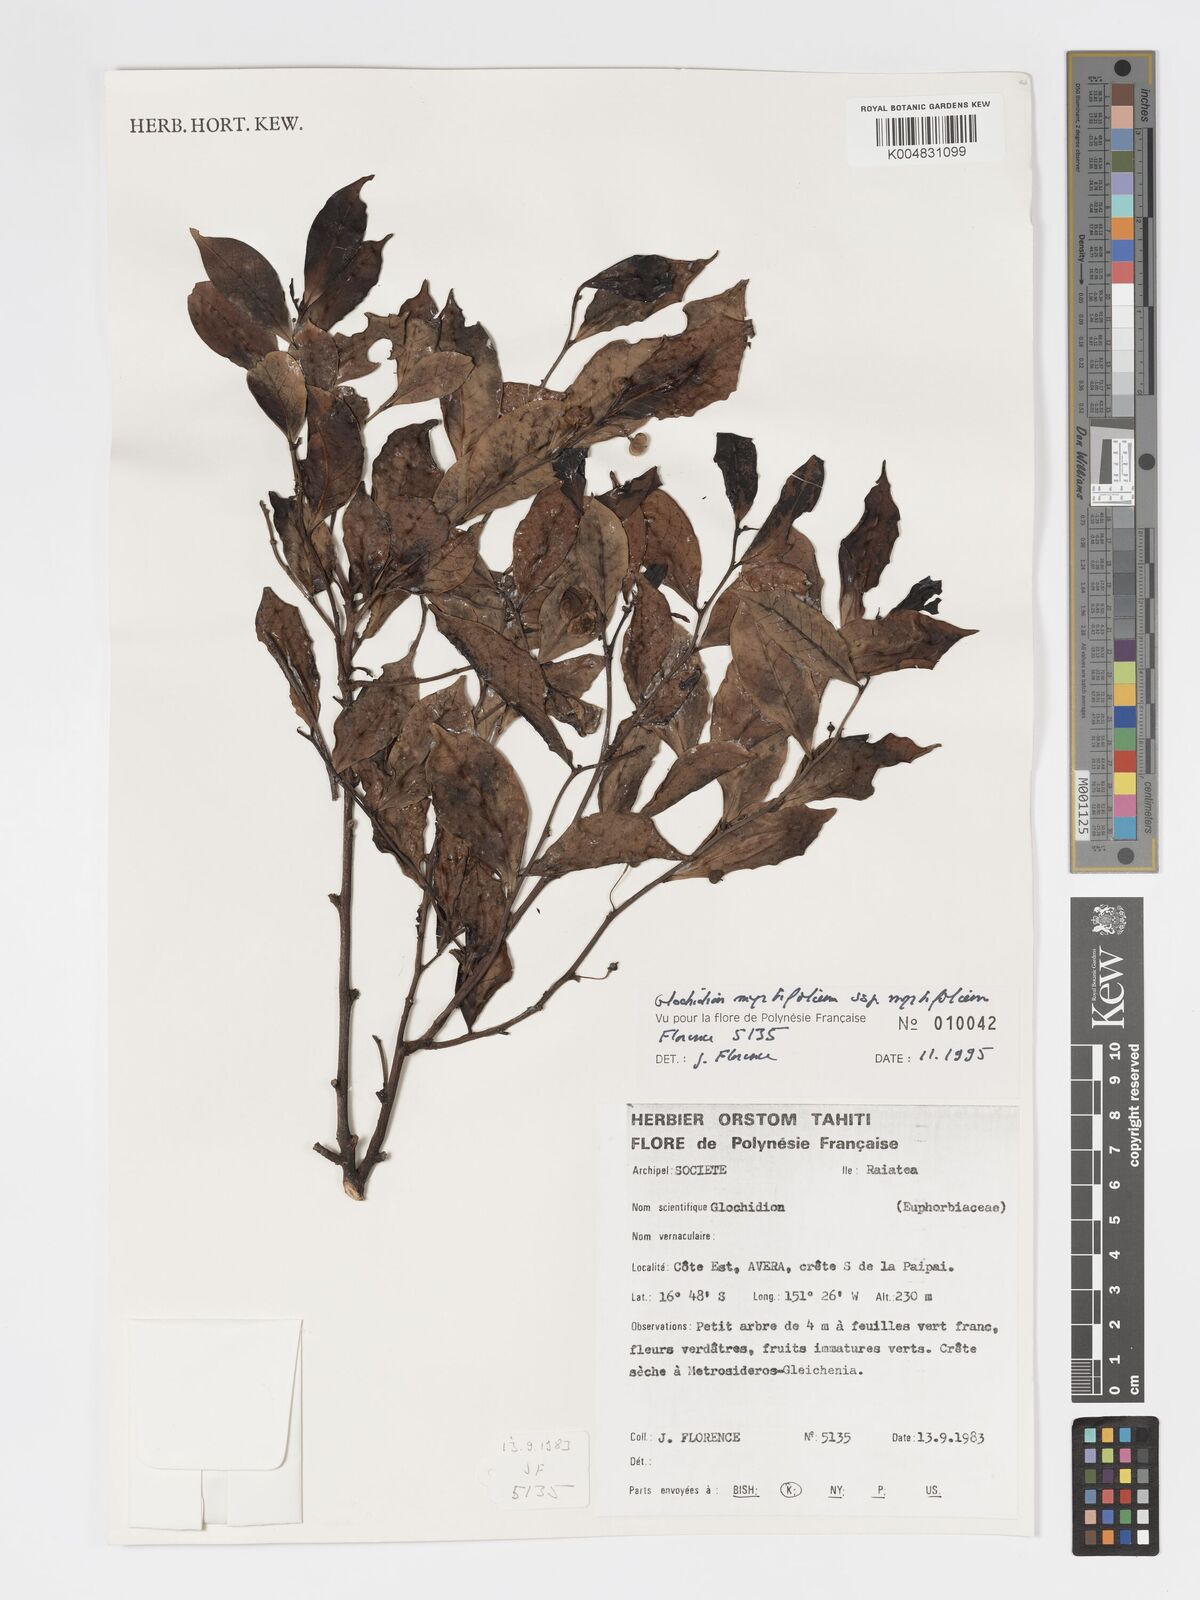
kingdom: Plantae
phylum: Tracheophyta
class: Magnoliopsida
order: Malpighiales
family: Phyllanthaceae
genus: Glochidion
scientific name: Glochidion myrtifolium
